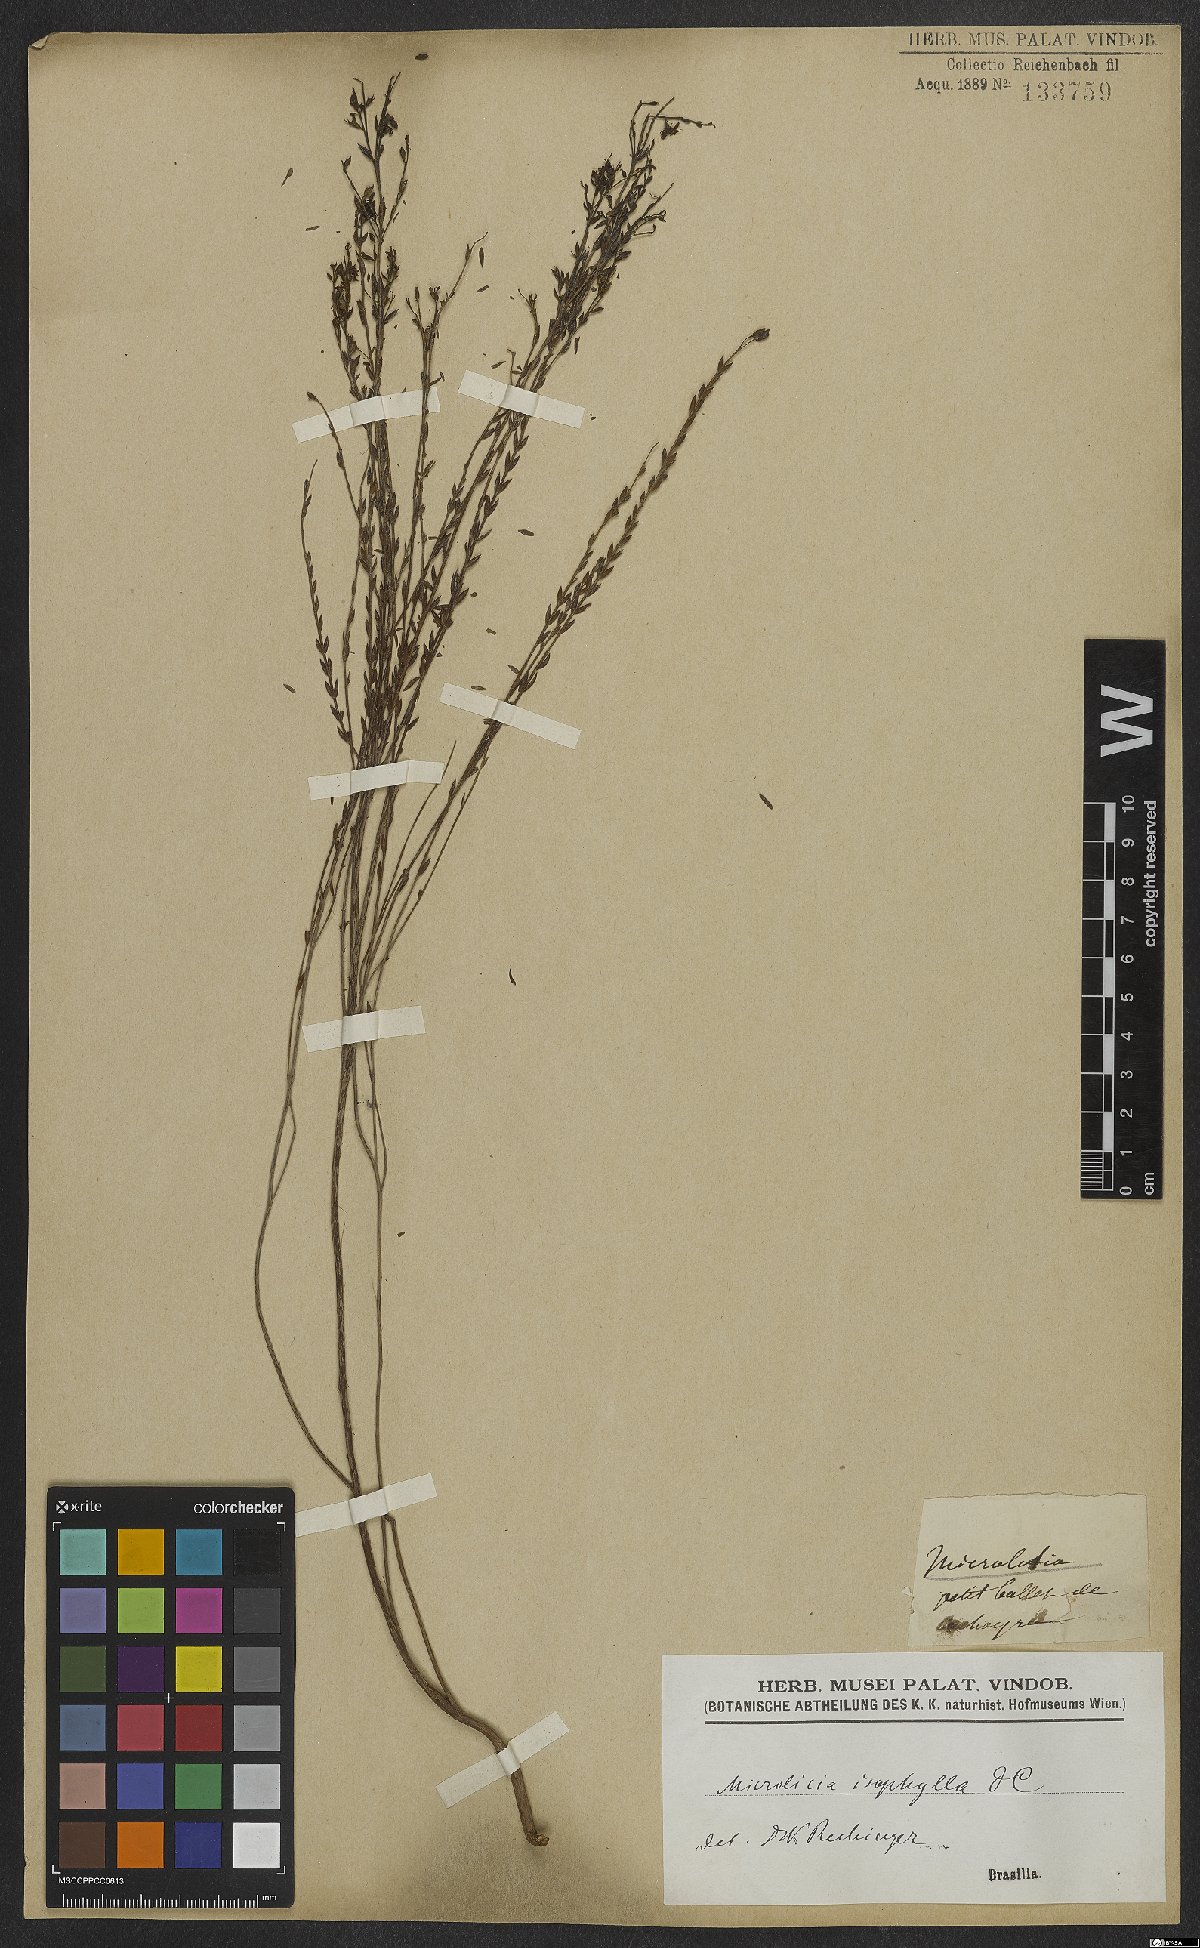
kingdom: Plantae
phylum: Tracheophyta
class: Magnoliopsida
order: Myrtales
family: Melastomataceae
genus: Microlicia
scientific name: Microlicia isophylla
